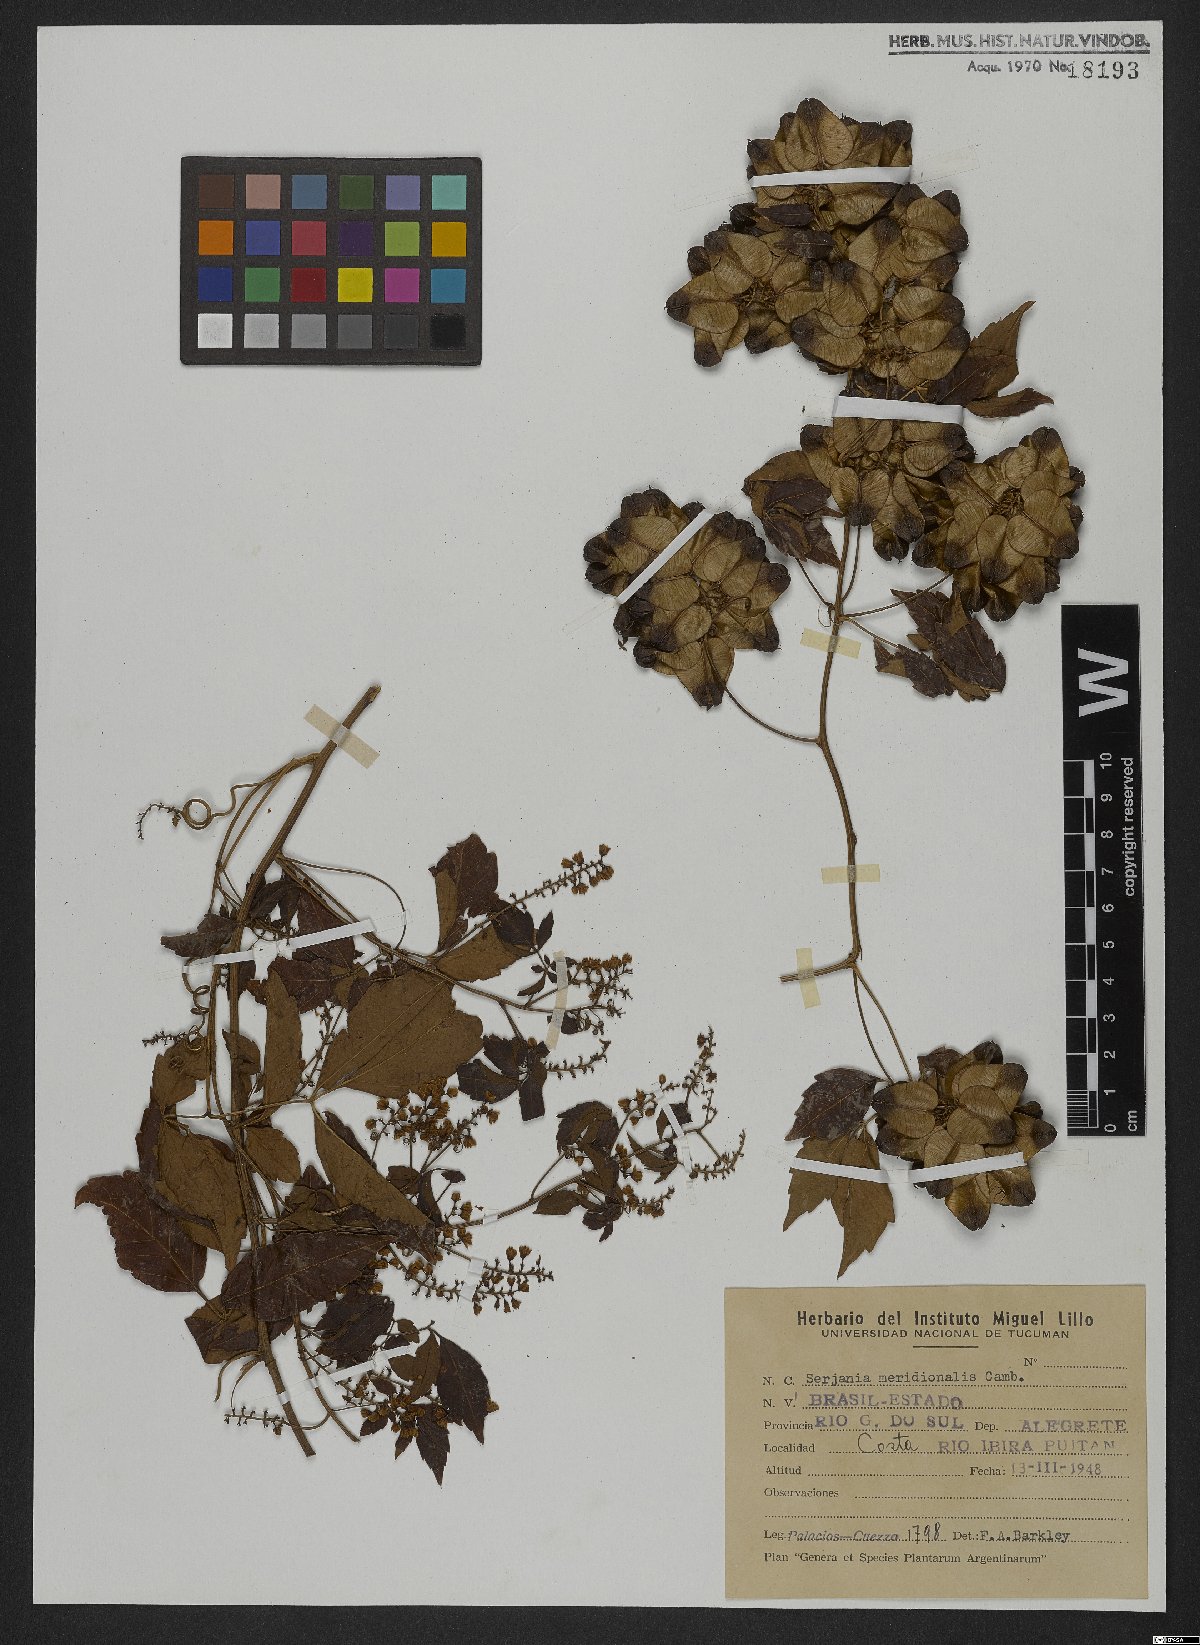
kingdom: Plantae
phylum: Tracheophyta
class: Magnoliopsida
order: Sapindales
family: Sapindaceae
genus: Serjania
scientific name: Serjania meridionalis
